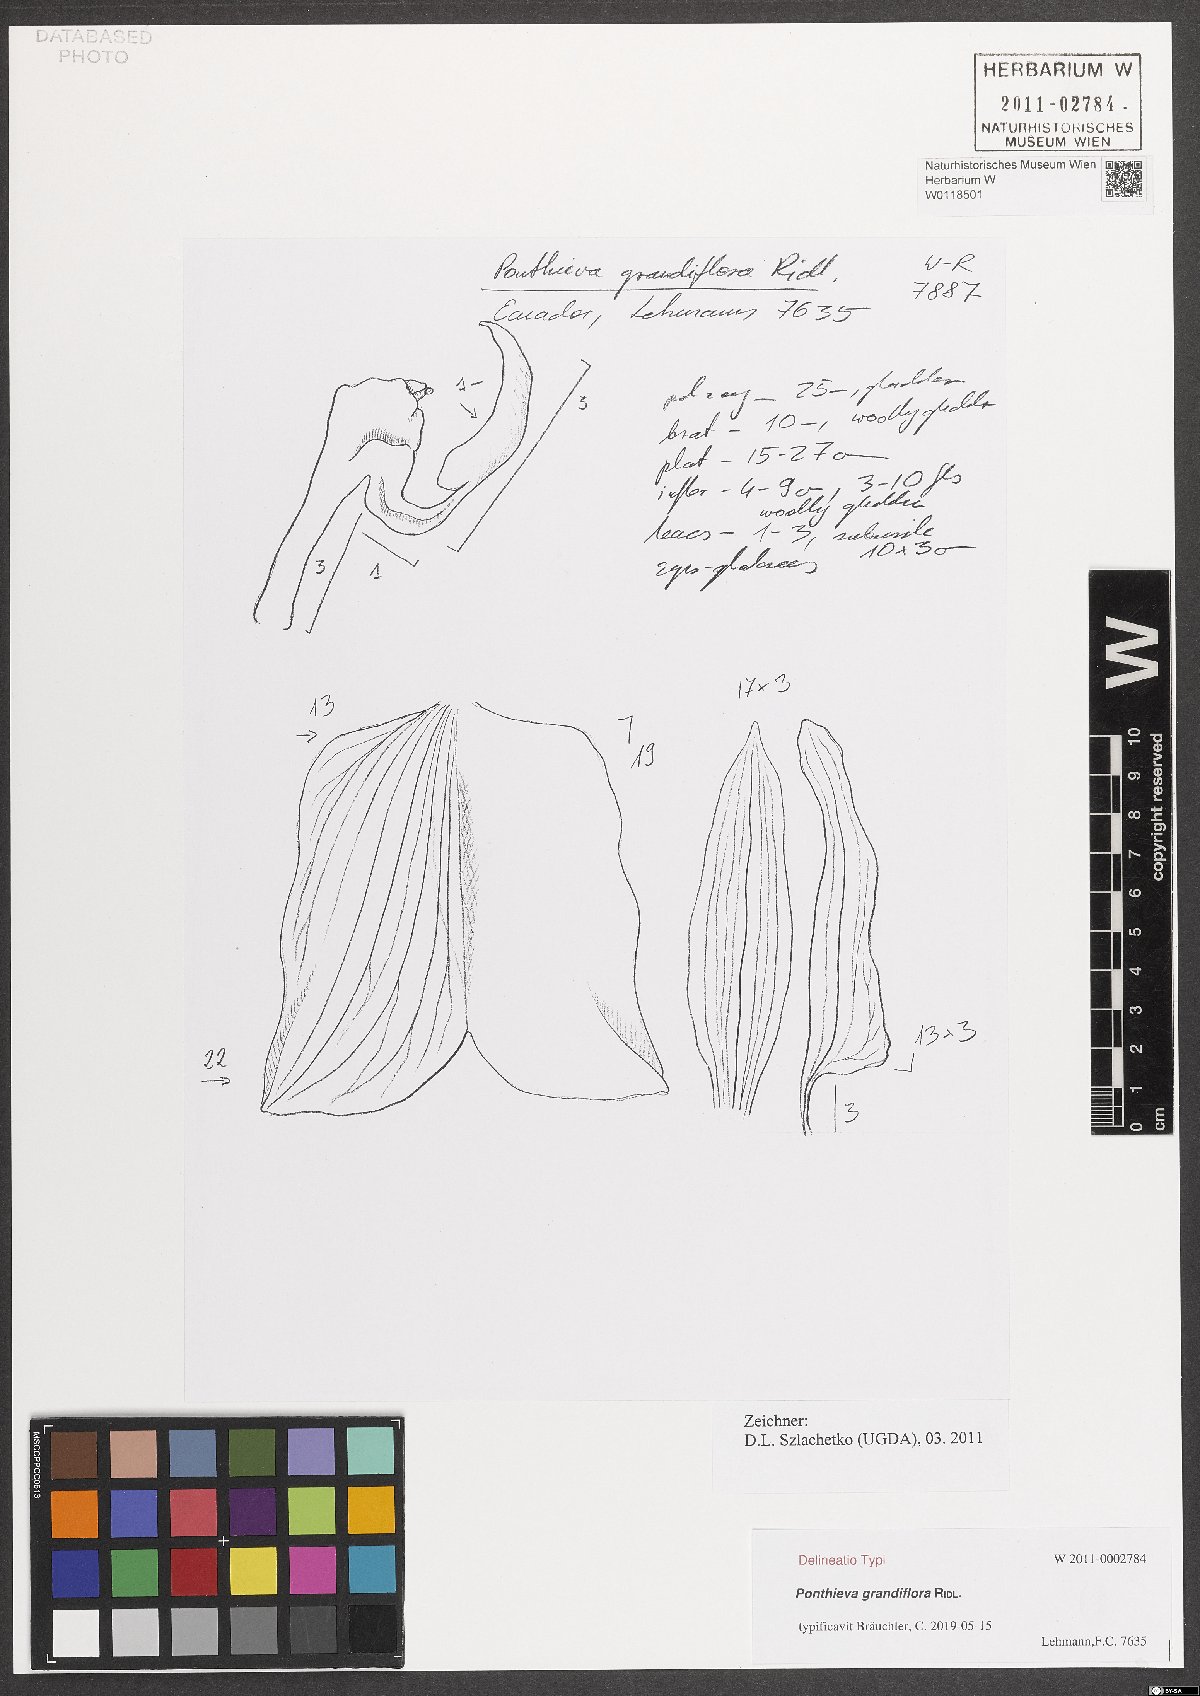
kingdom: Plantae
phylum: Tracheophyta
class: Liliopsida
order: Asparagales
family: Orchidaceae
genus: Ponthieva
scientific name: Ponthieva grandiflora
